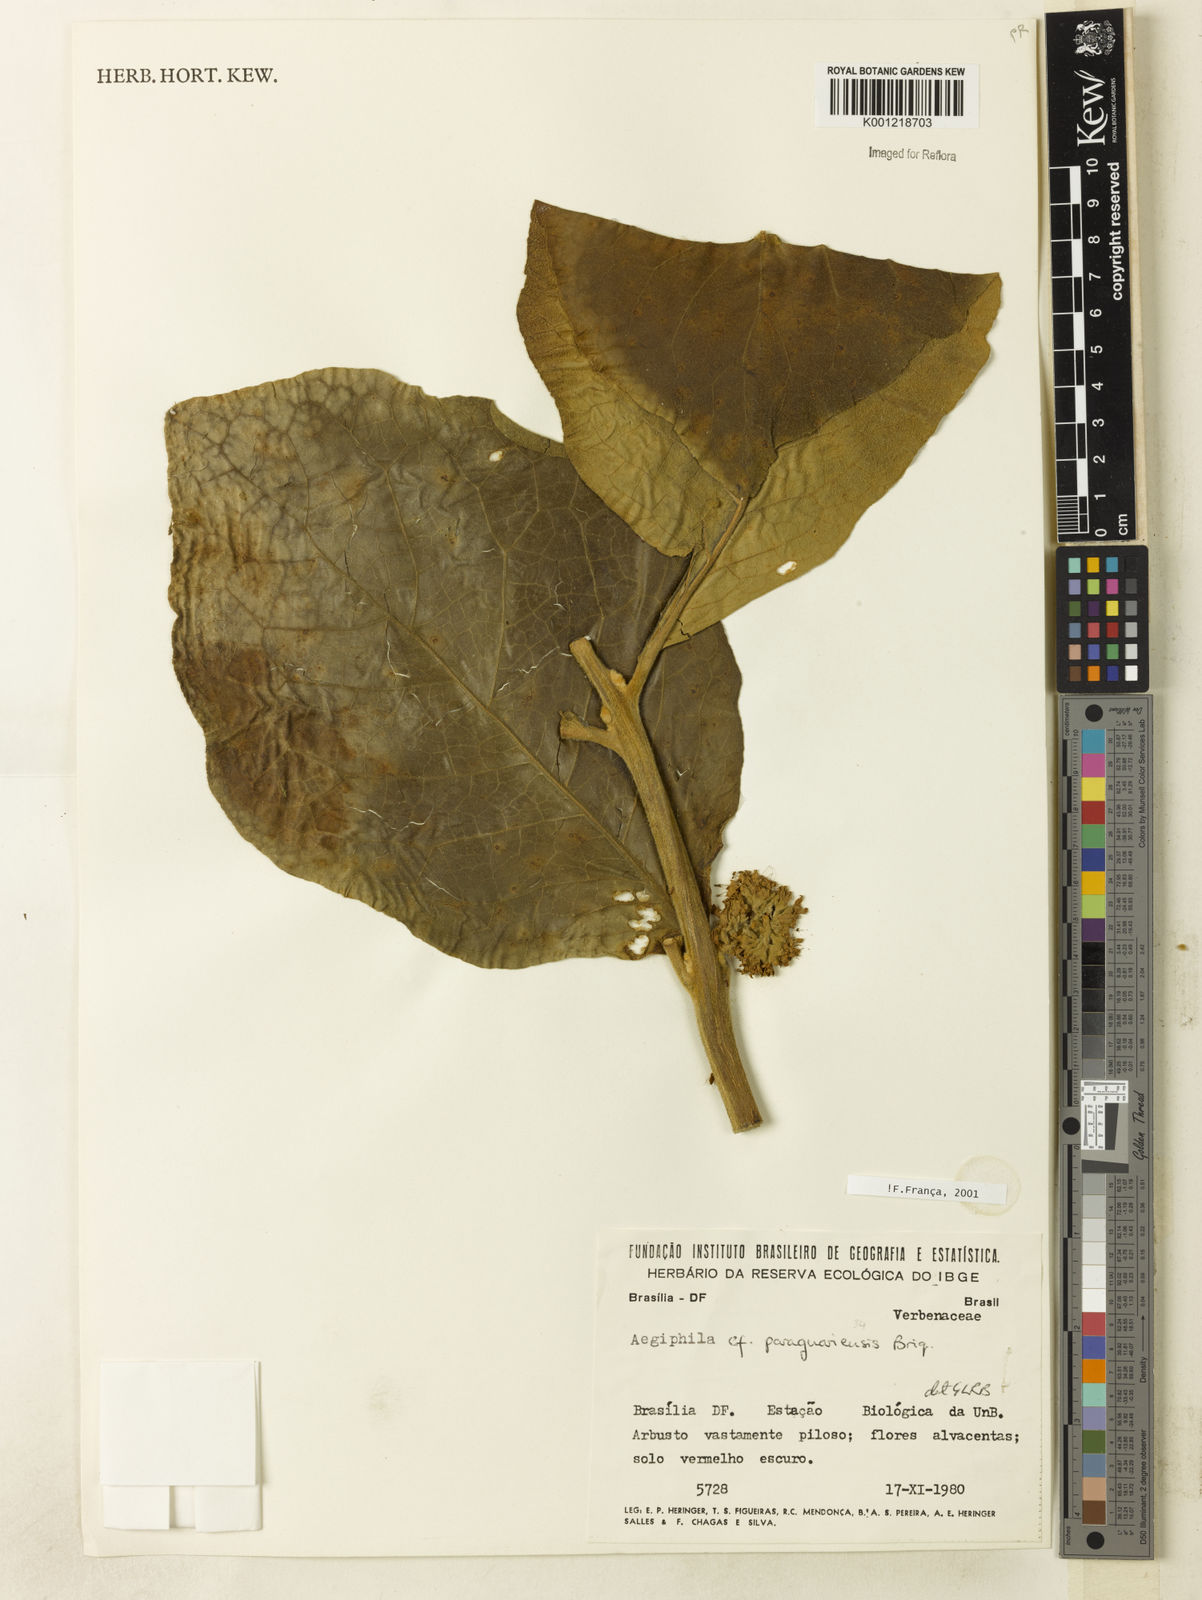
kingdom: Plantae
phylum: Tracheophyta
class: Magnoliopsida
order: Lamiales
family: Lamiaceae
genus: Aegiphila
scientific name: Aegiphila paraguariensis
